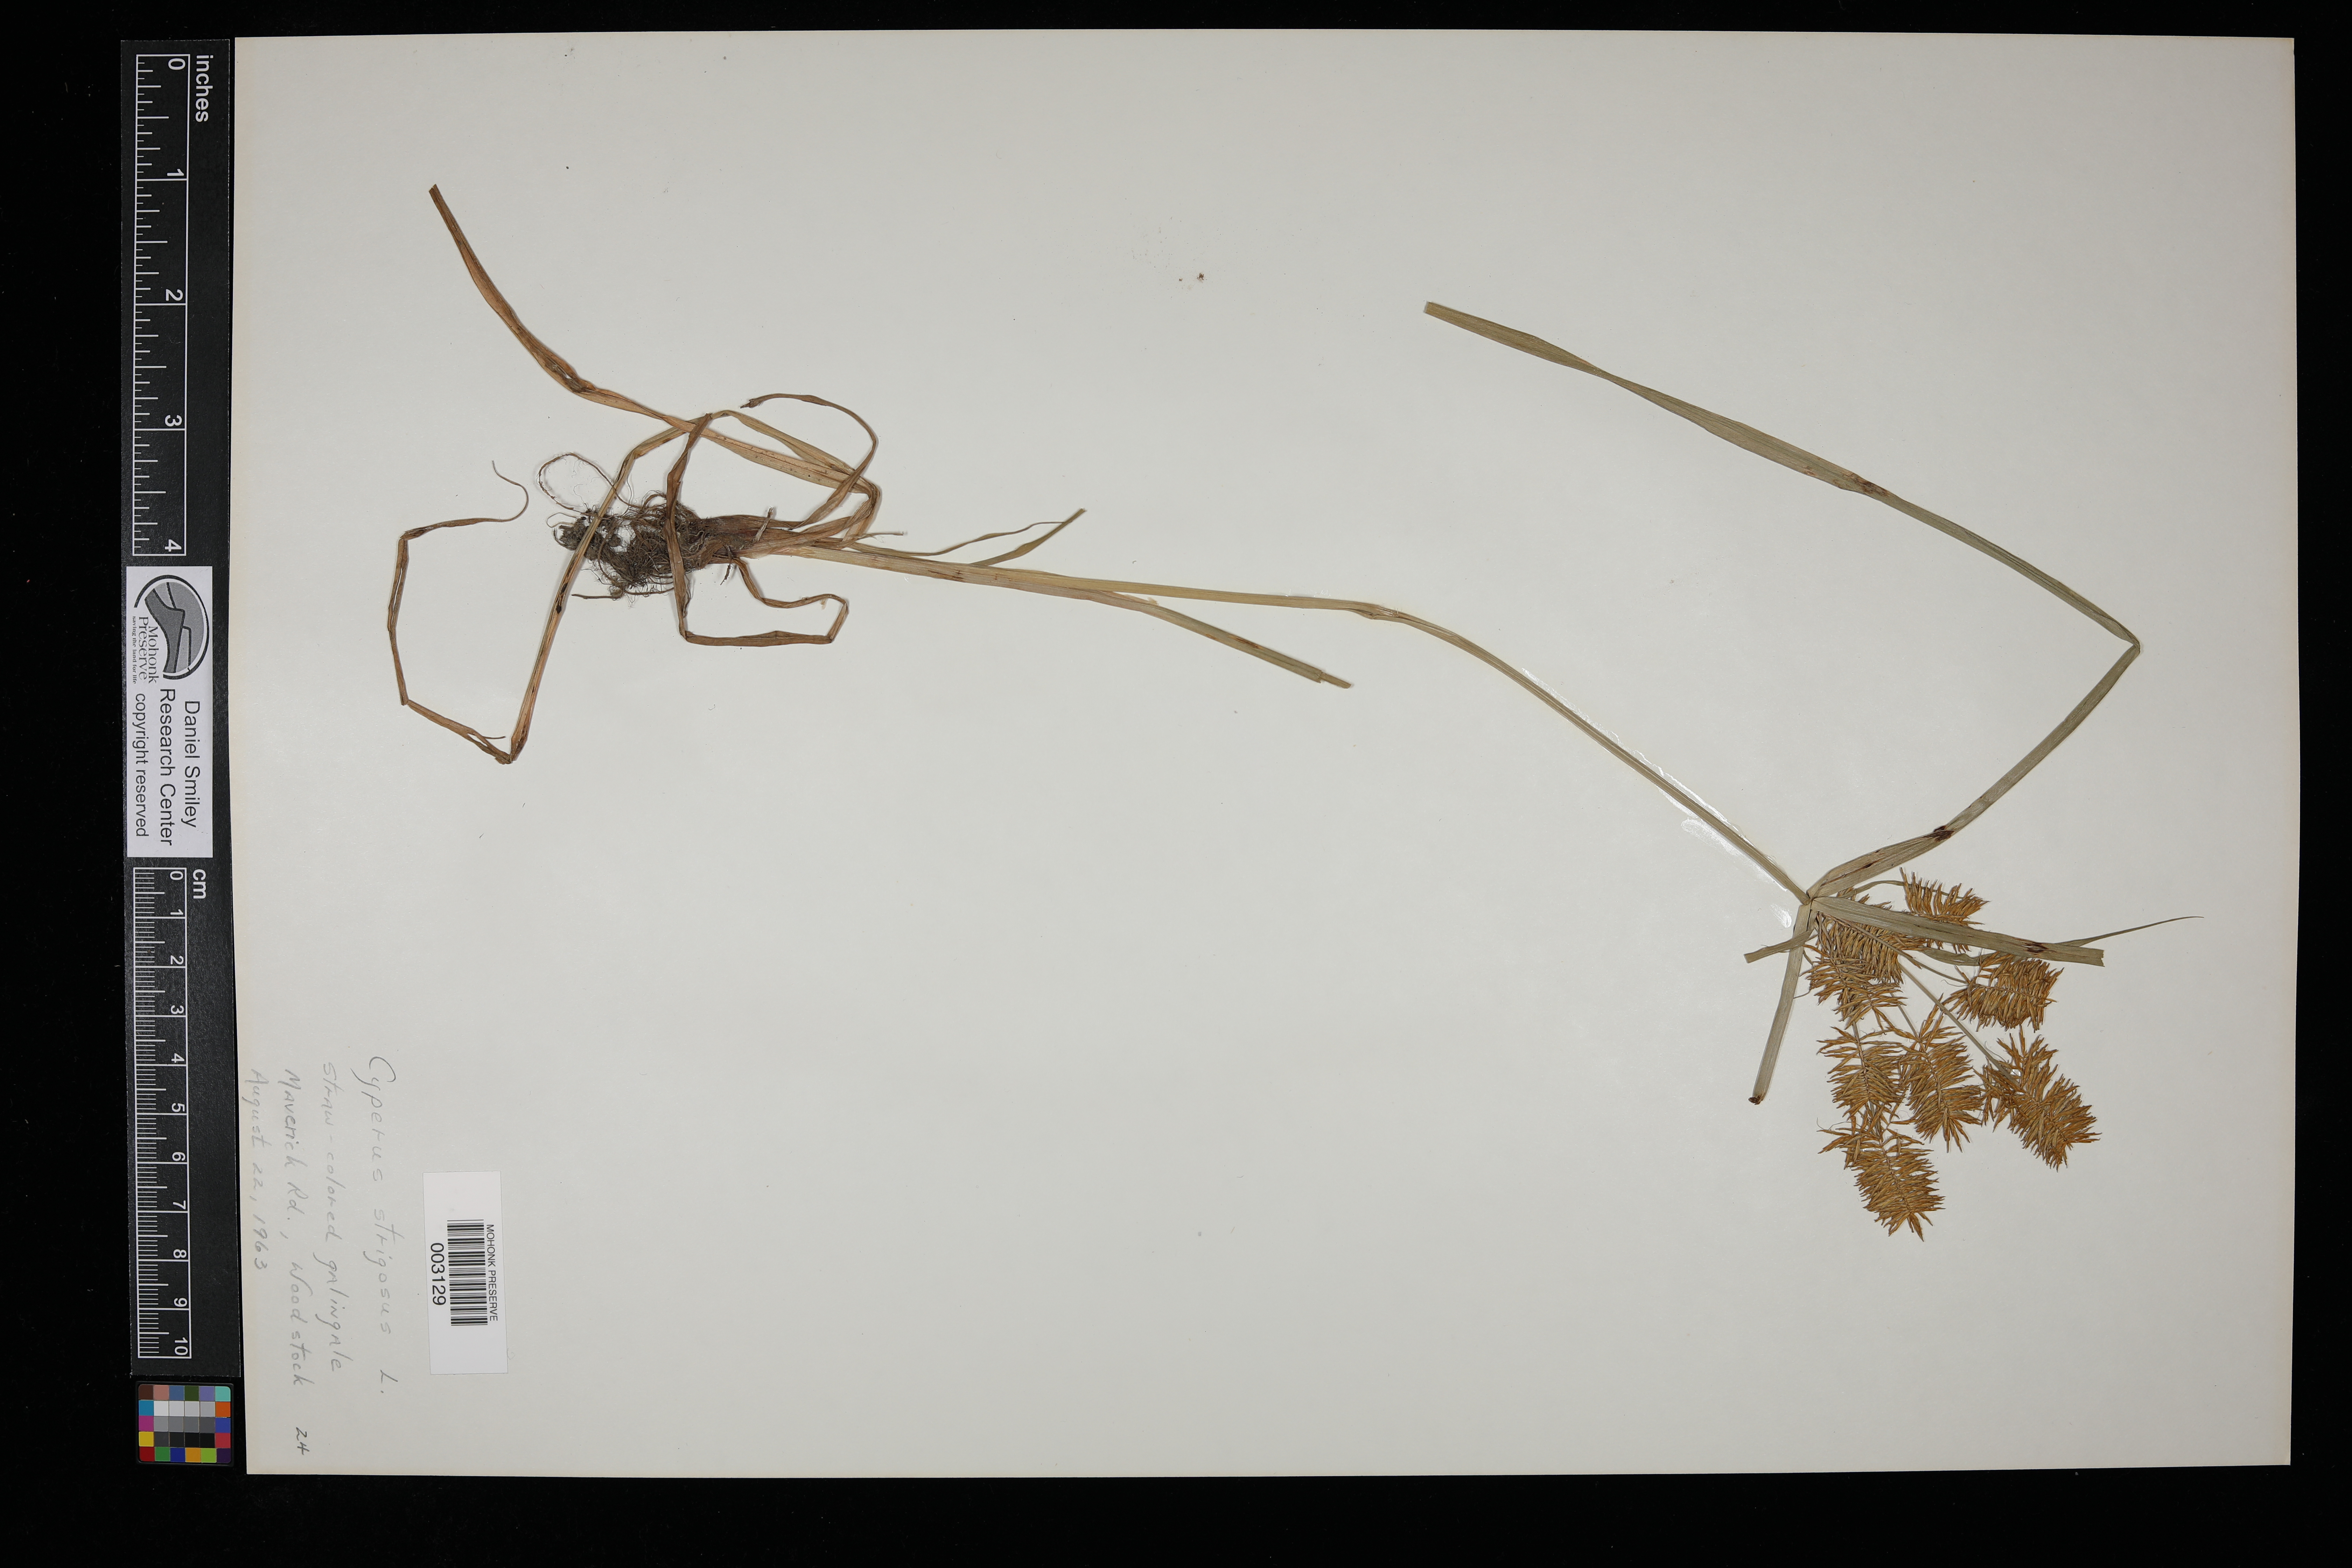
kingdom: Plantae
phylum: Tracheophyta
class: Liliopsida
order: Poales
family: Cyperaceae
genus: Cyperus
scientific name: Cyperus strigosus
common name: False nutsedge
